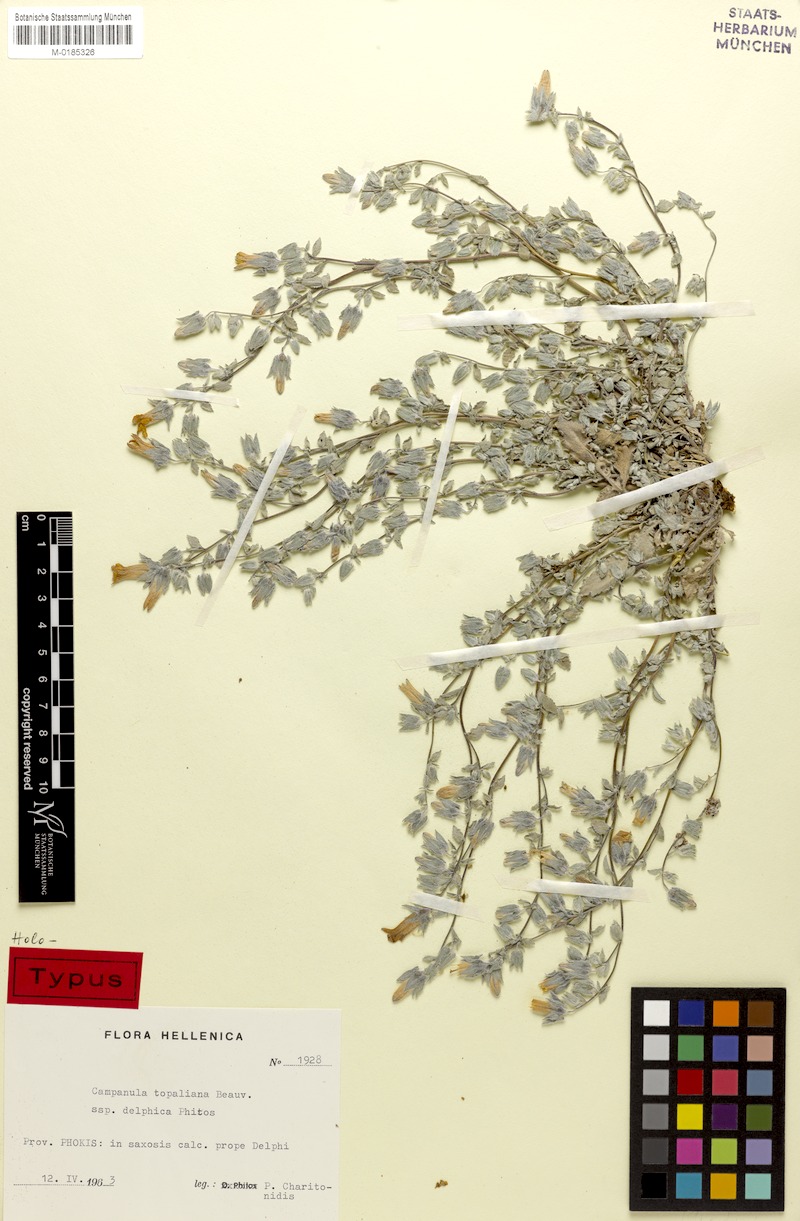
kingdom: Plantae
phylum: Tracheophyta
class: Magnoliopsida
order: Asterales
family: Campanulaceae
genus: Campanula
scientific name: Campanula topaliana
